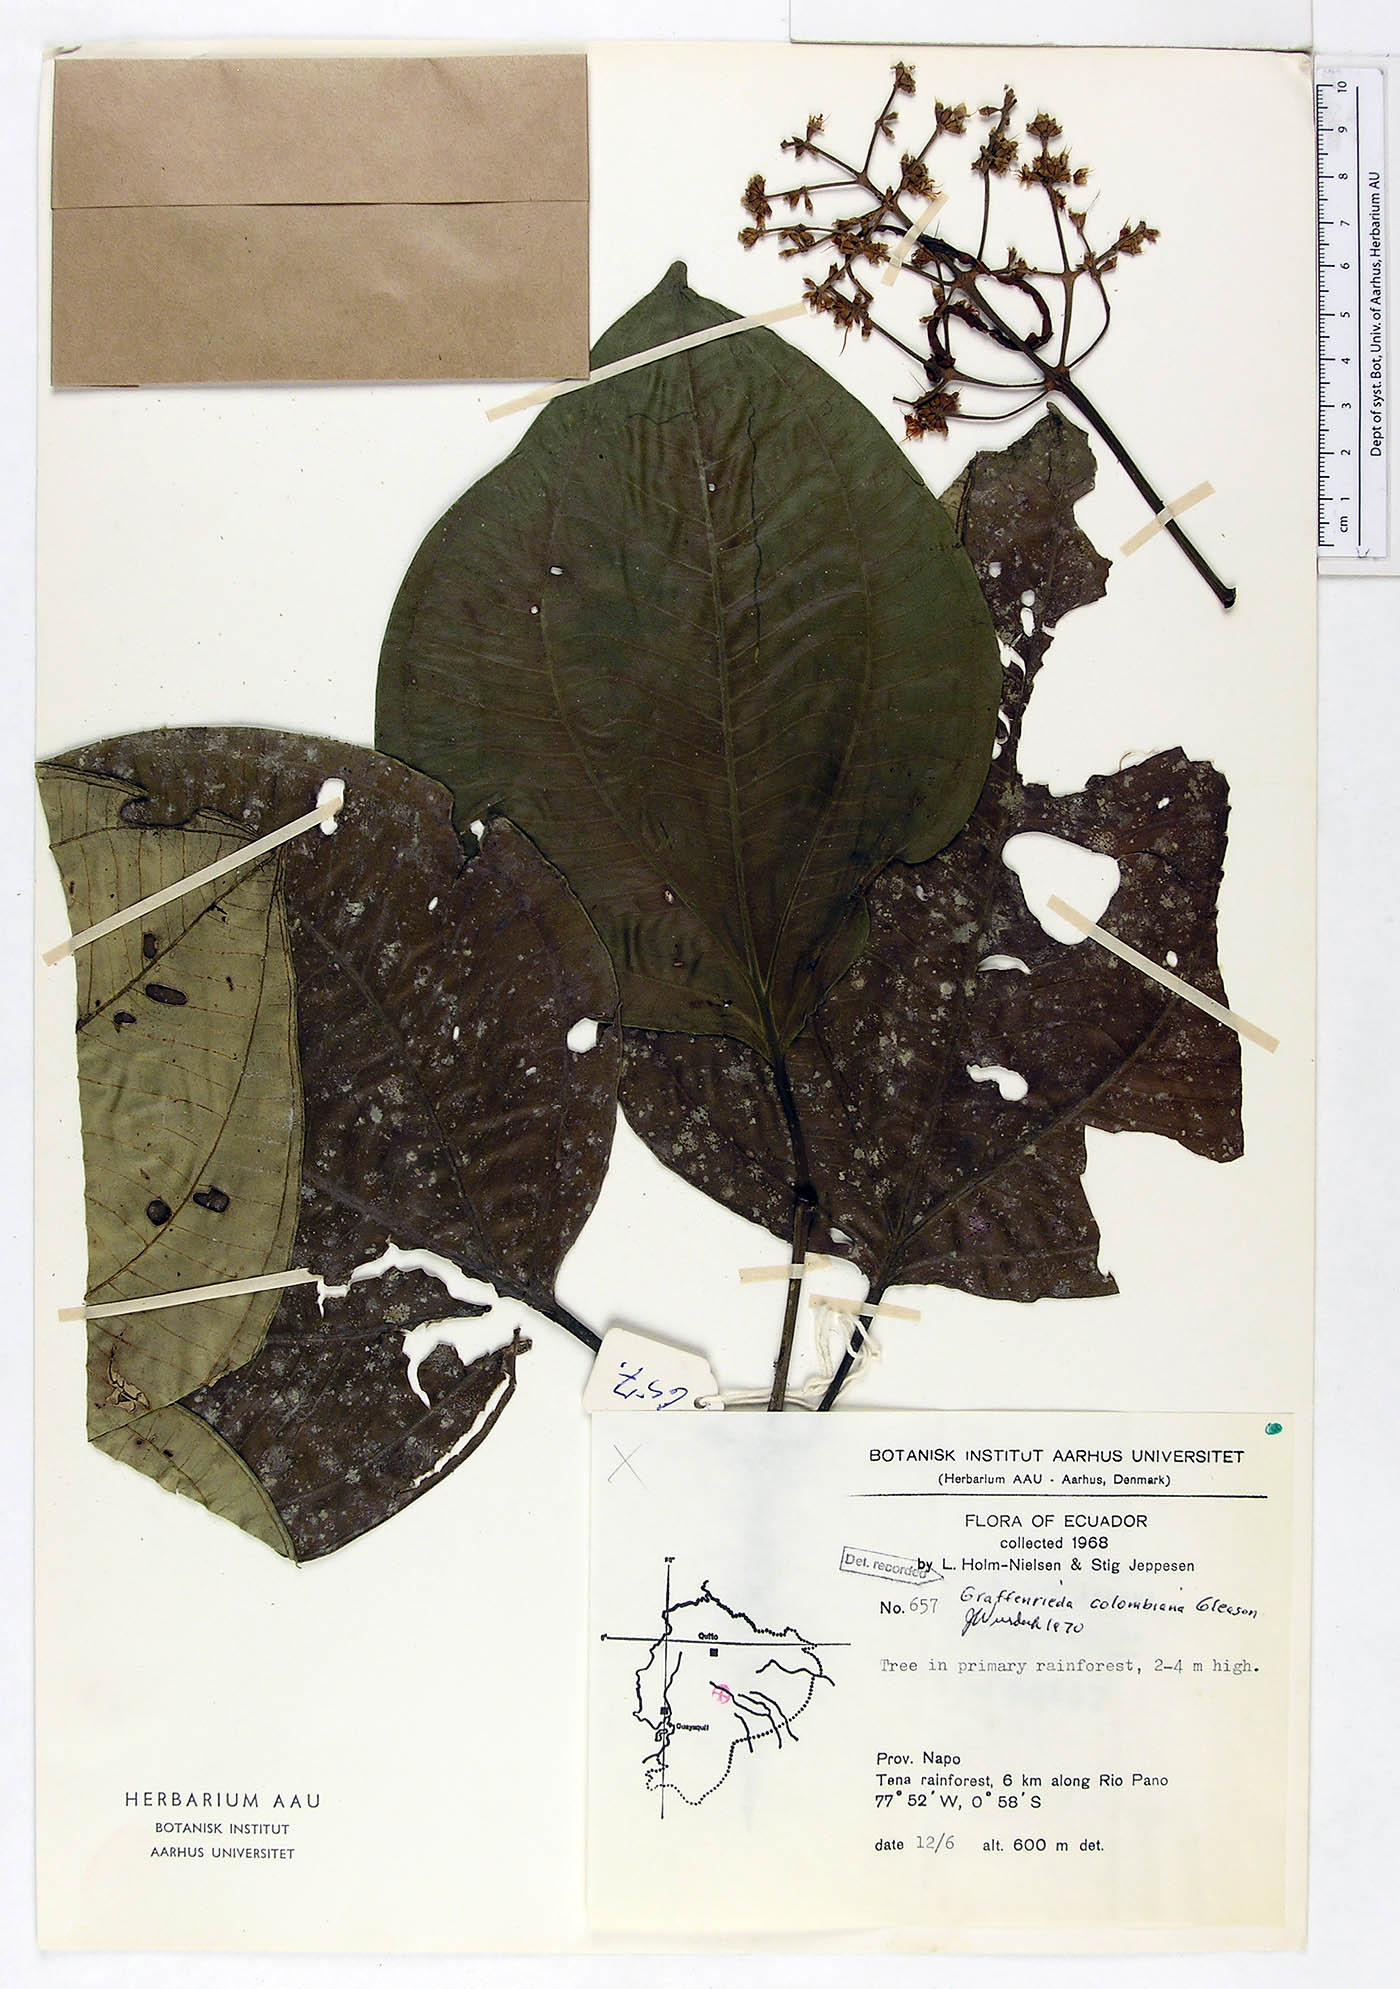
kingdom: Plantae
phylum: Tracheophyta
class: Magnoliopsida
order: Myrtales
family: Melastomataceae
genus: Graffenrieda
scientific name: Graffenrieda colombiana
